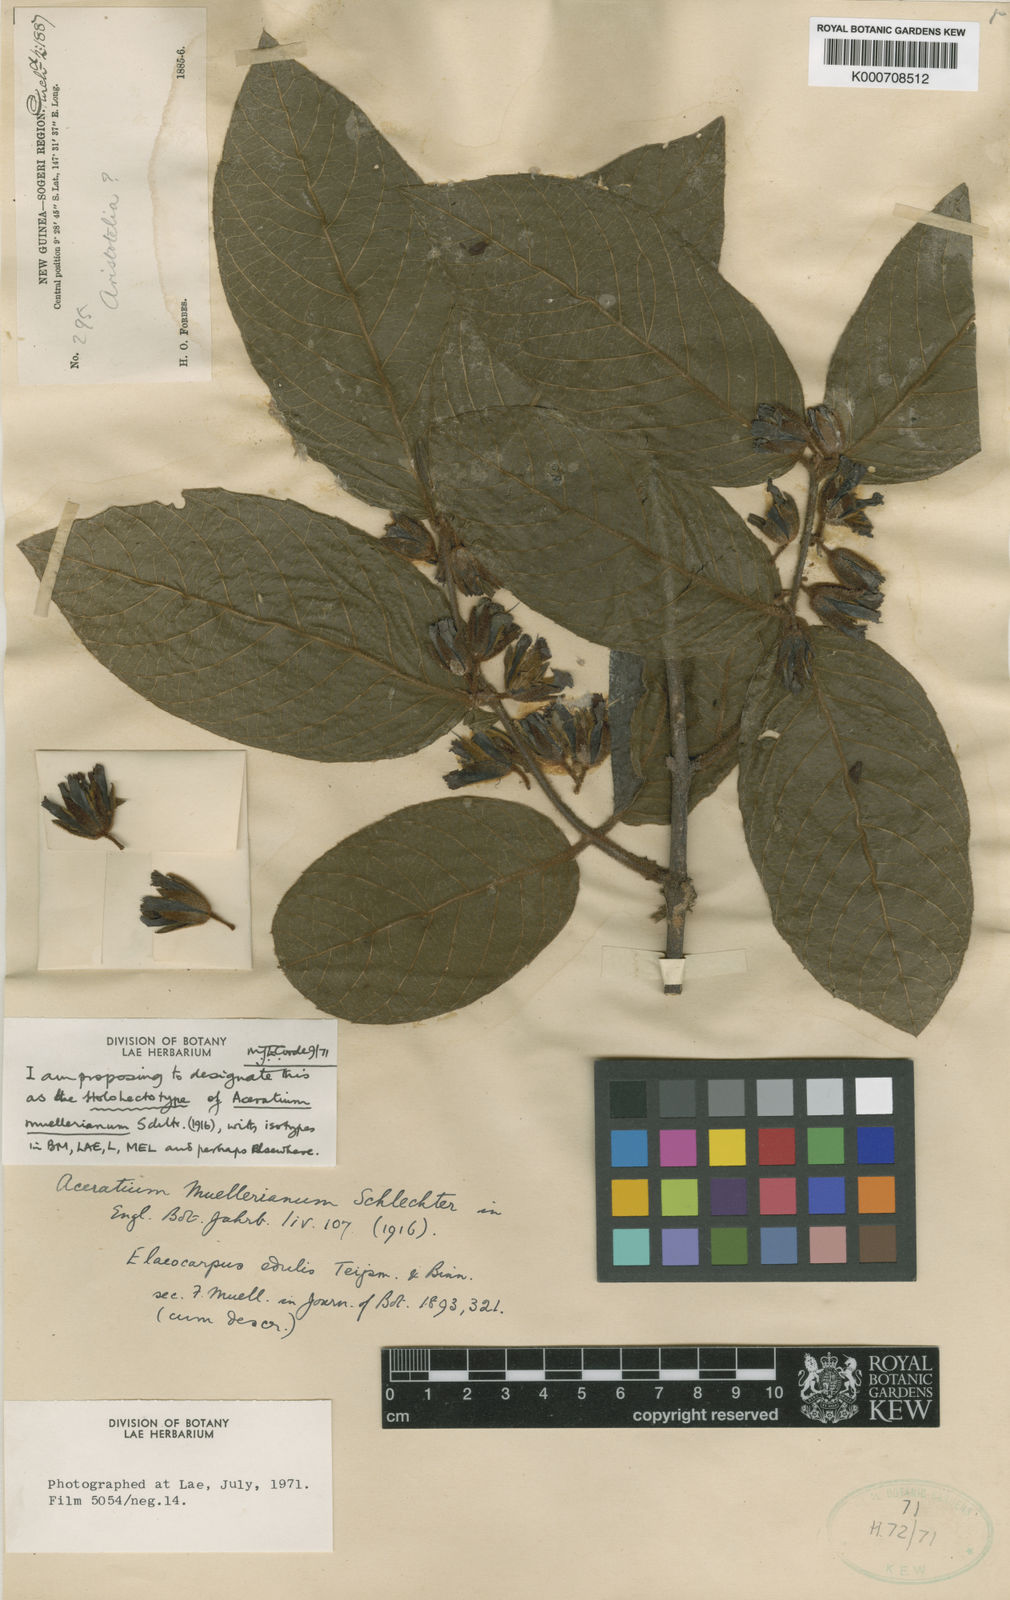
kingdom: Plantae
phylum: Tracheophyta
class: Magnoliopsida
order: Oxalidales
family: Elaeocarpaceae
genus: Aceratium
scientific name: Aceratium muellerianum
